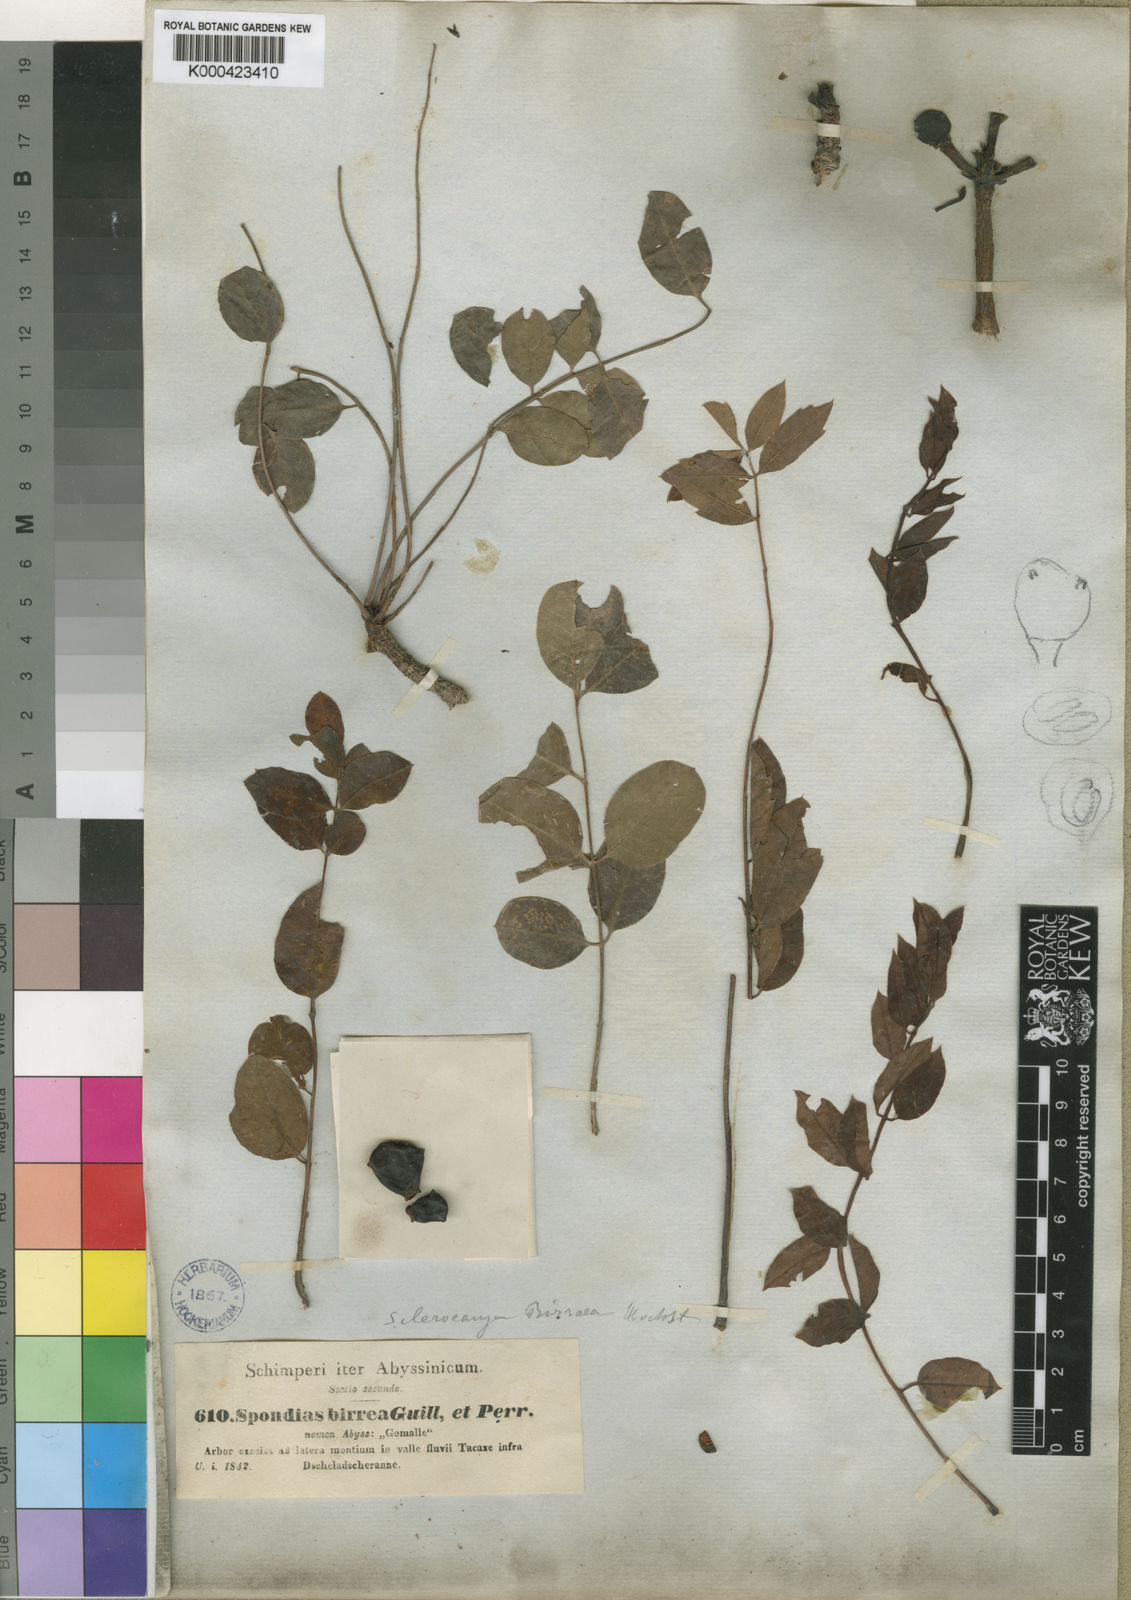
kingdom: Plantae
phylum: Tracheophyta
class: Magnoliopsida
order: Sapindales
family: Anacardiaceae
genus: Sclerocarya
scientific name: Sclerocarya birrea
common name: Marula
